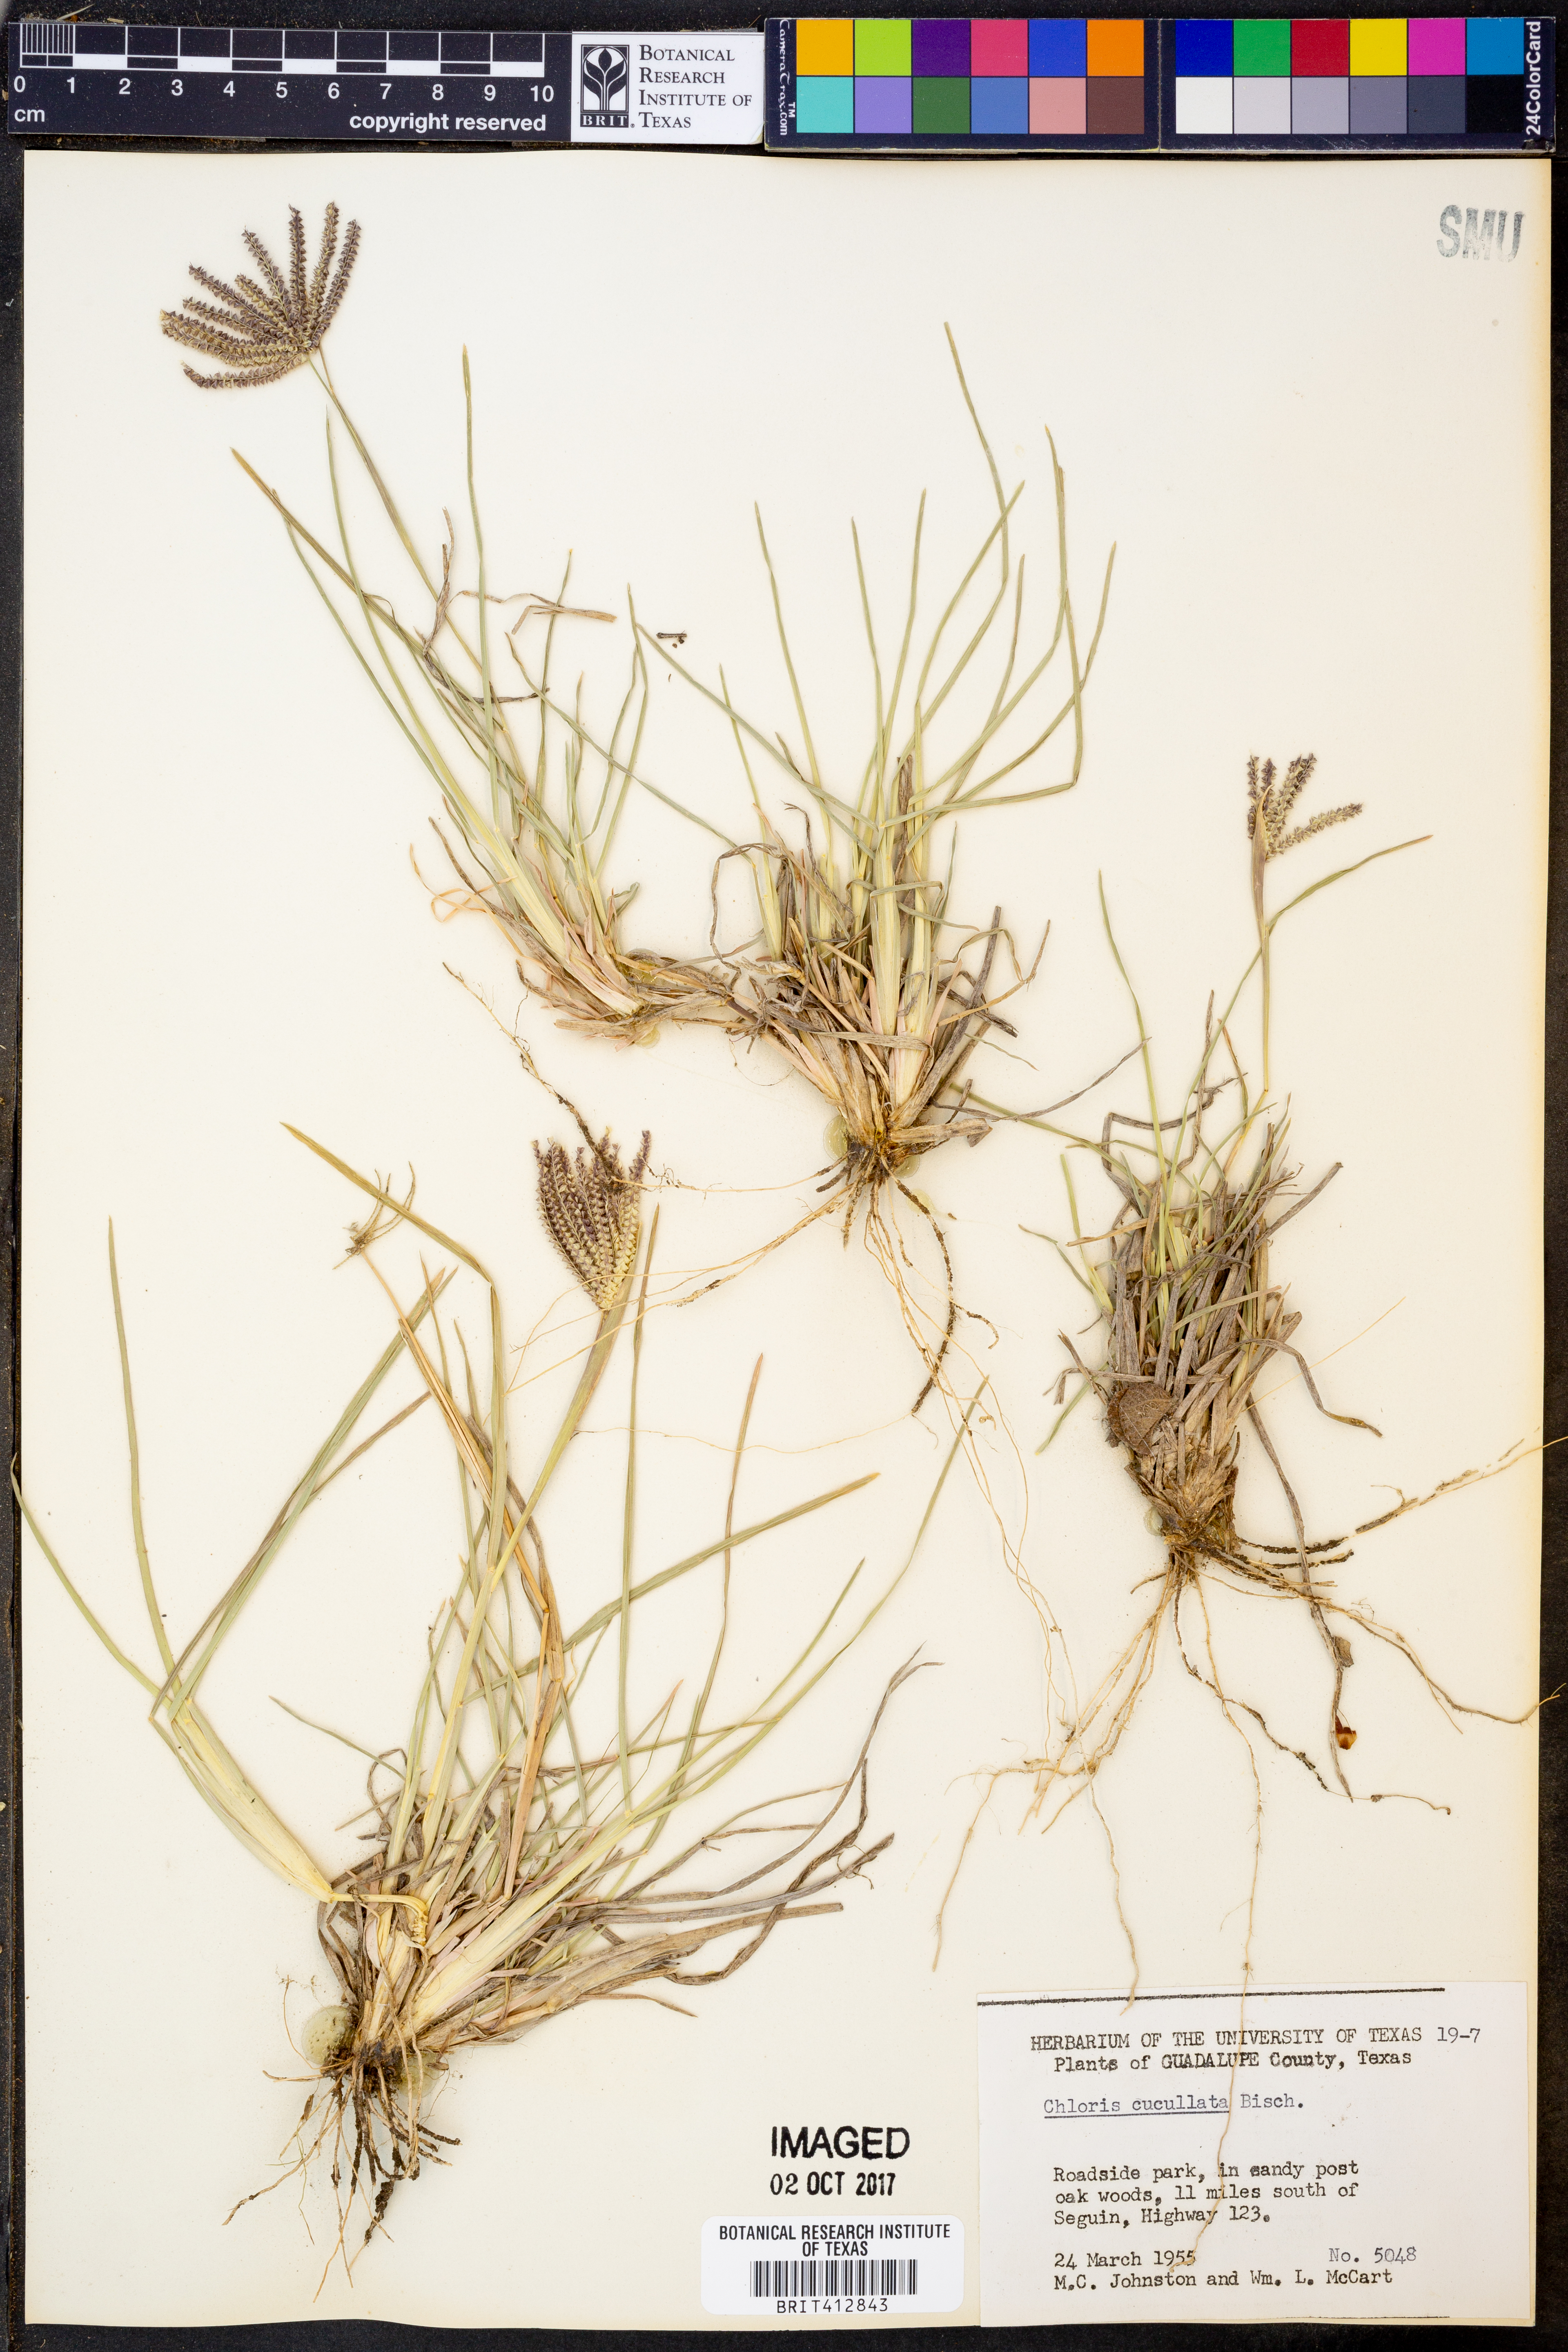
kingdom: Plantae
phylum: Tracheophyta
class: Liliopsida
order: Poales
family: Poaceae
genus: Chloris
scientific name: Chloris cucullata
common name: Hooded windmill grass
